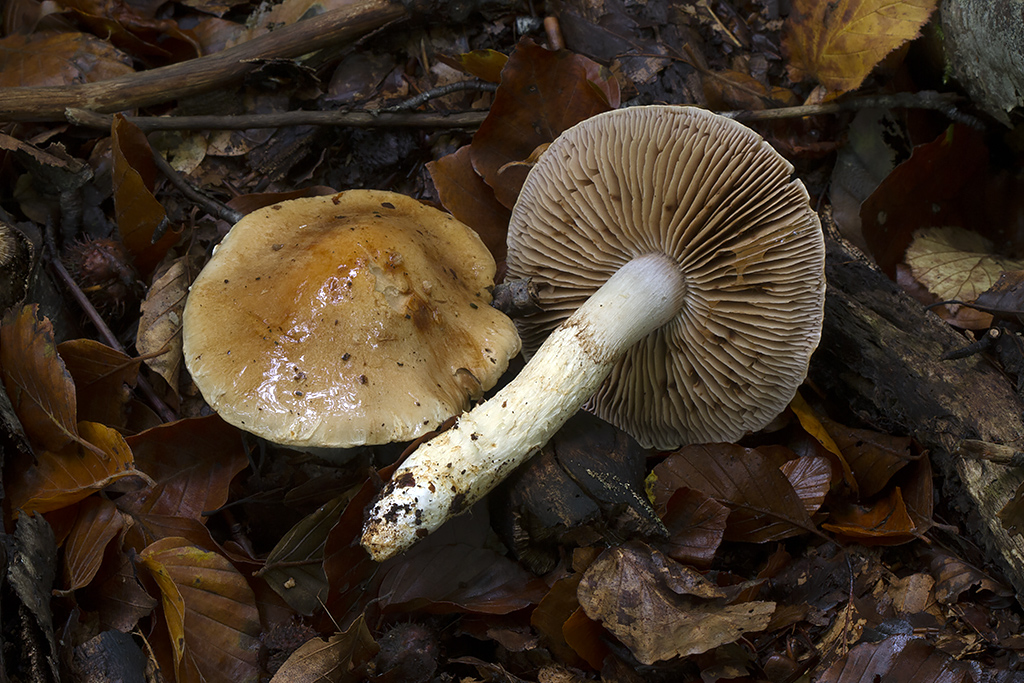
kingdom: Fungi
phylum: Basidiomycota
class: Agaricomycetes
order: Agaricales
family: Cortinariaceae
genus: Phlegmacium
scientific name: Phlegmacium obsoletum
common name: ulve-slørhat
